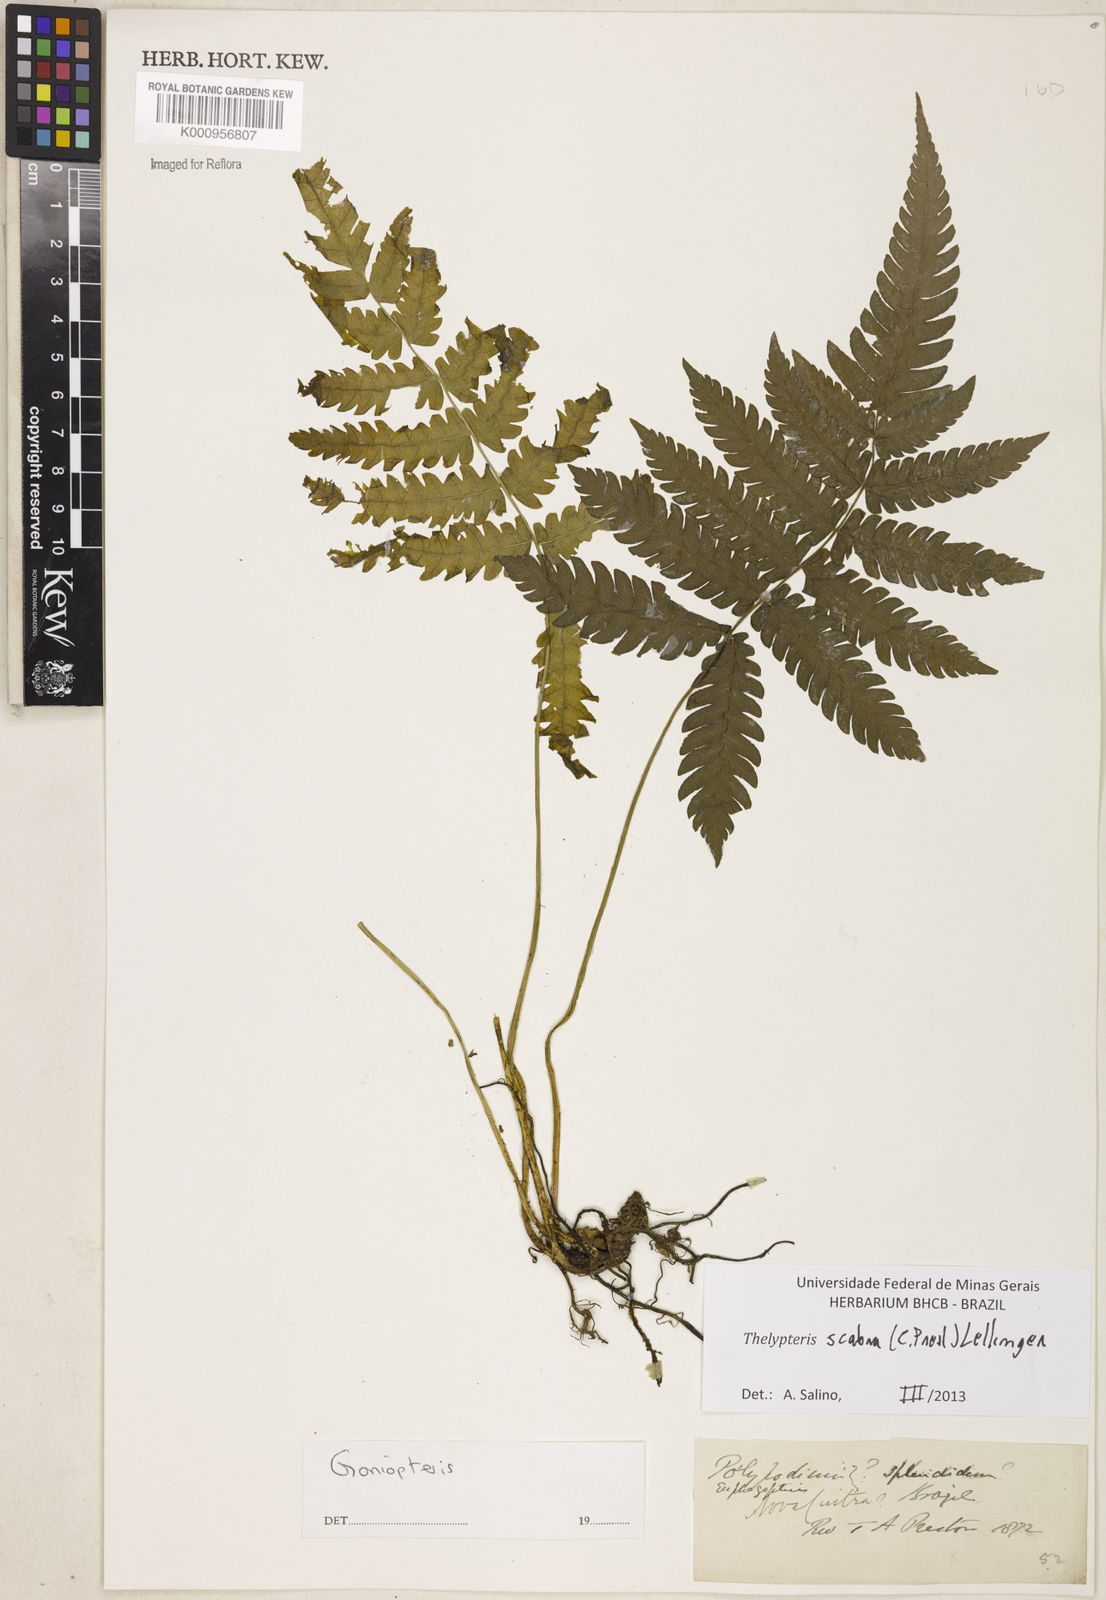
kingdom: Plantae
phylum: Tracheophyta
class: Polypodiopsida
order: Polypodiales
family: Thelypteridaceae
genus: Goniopteris
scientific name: Goniopteris scabra
